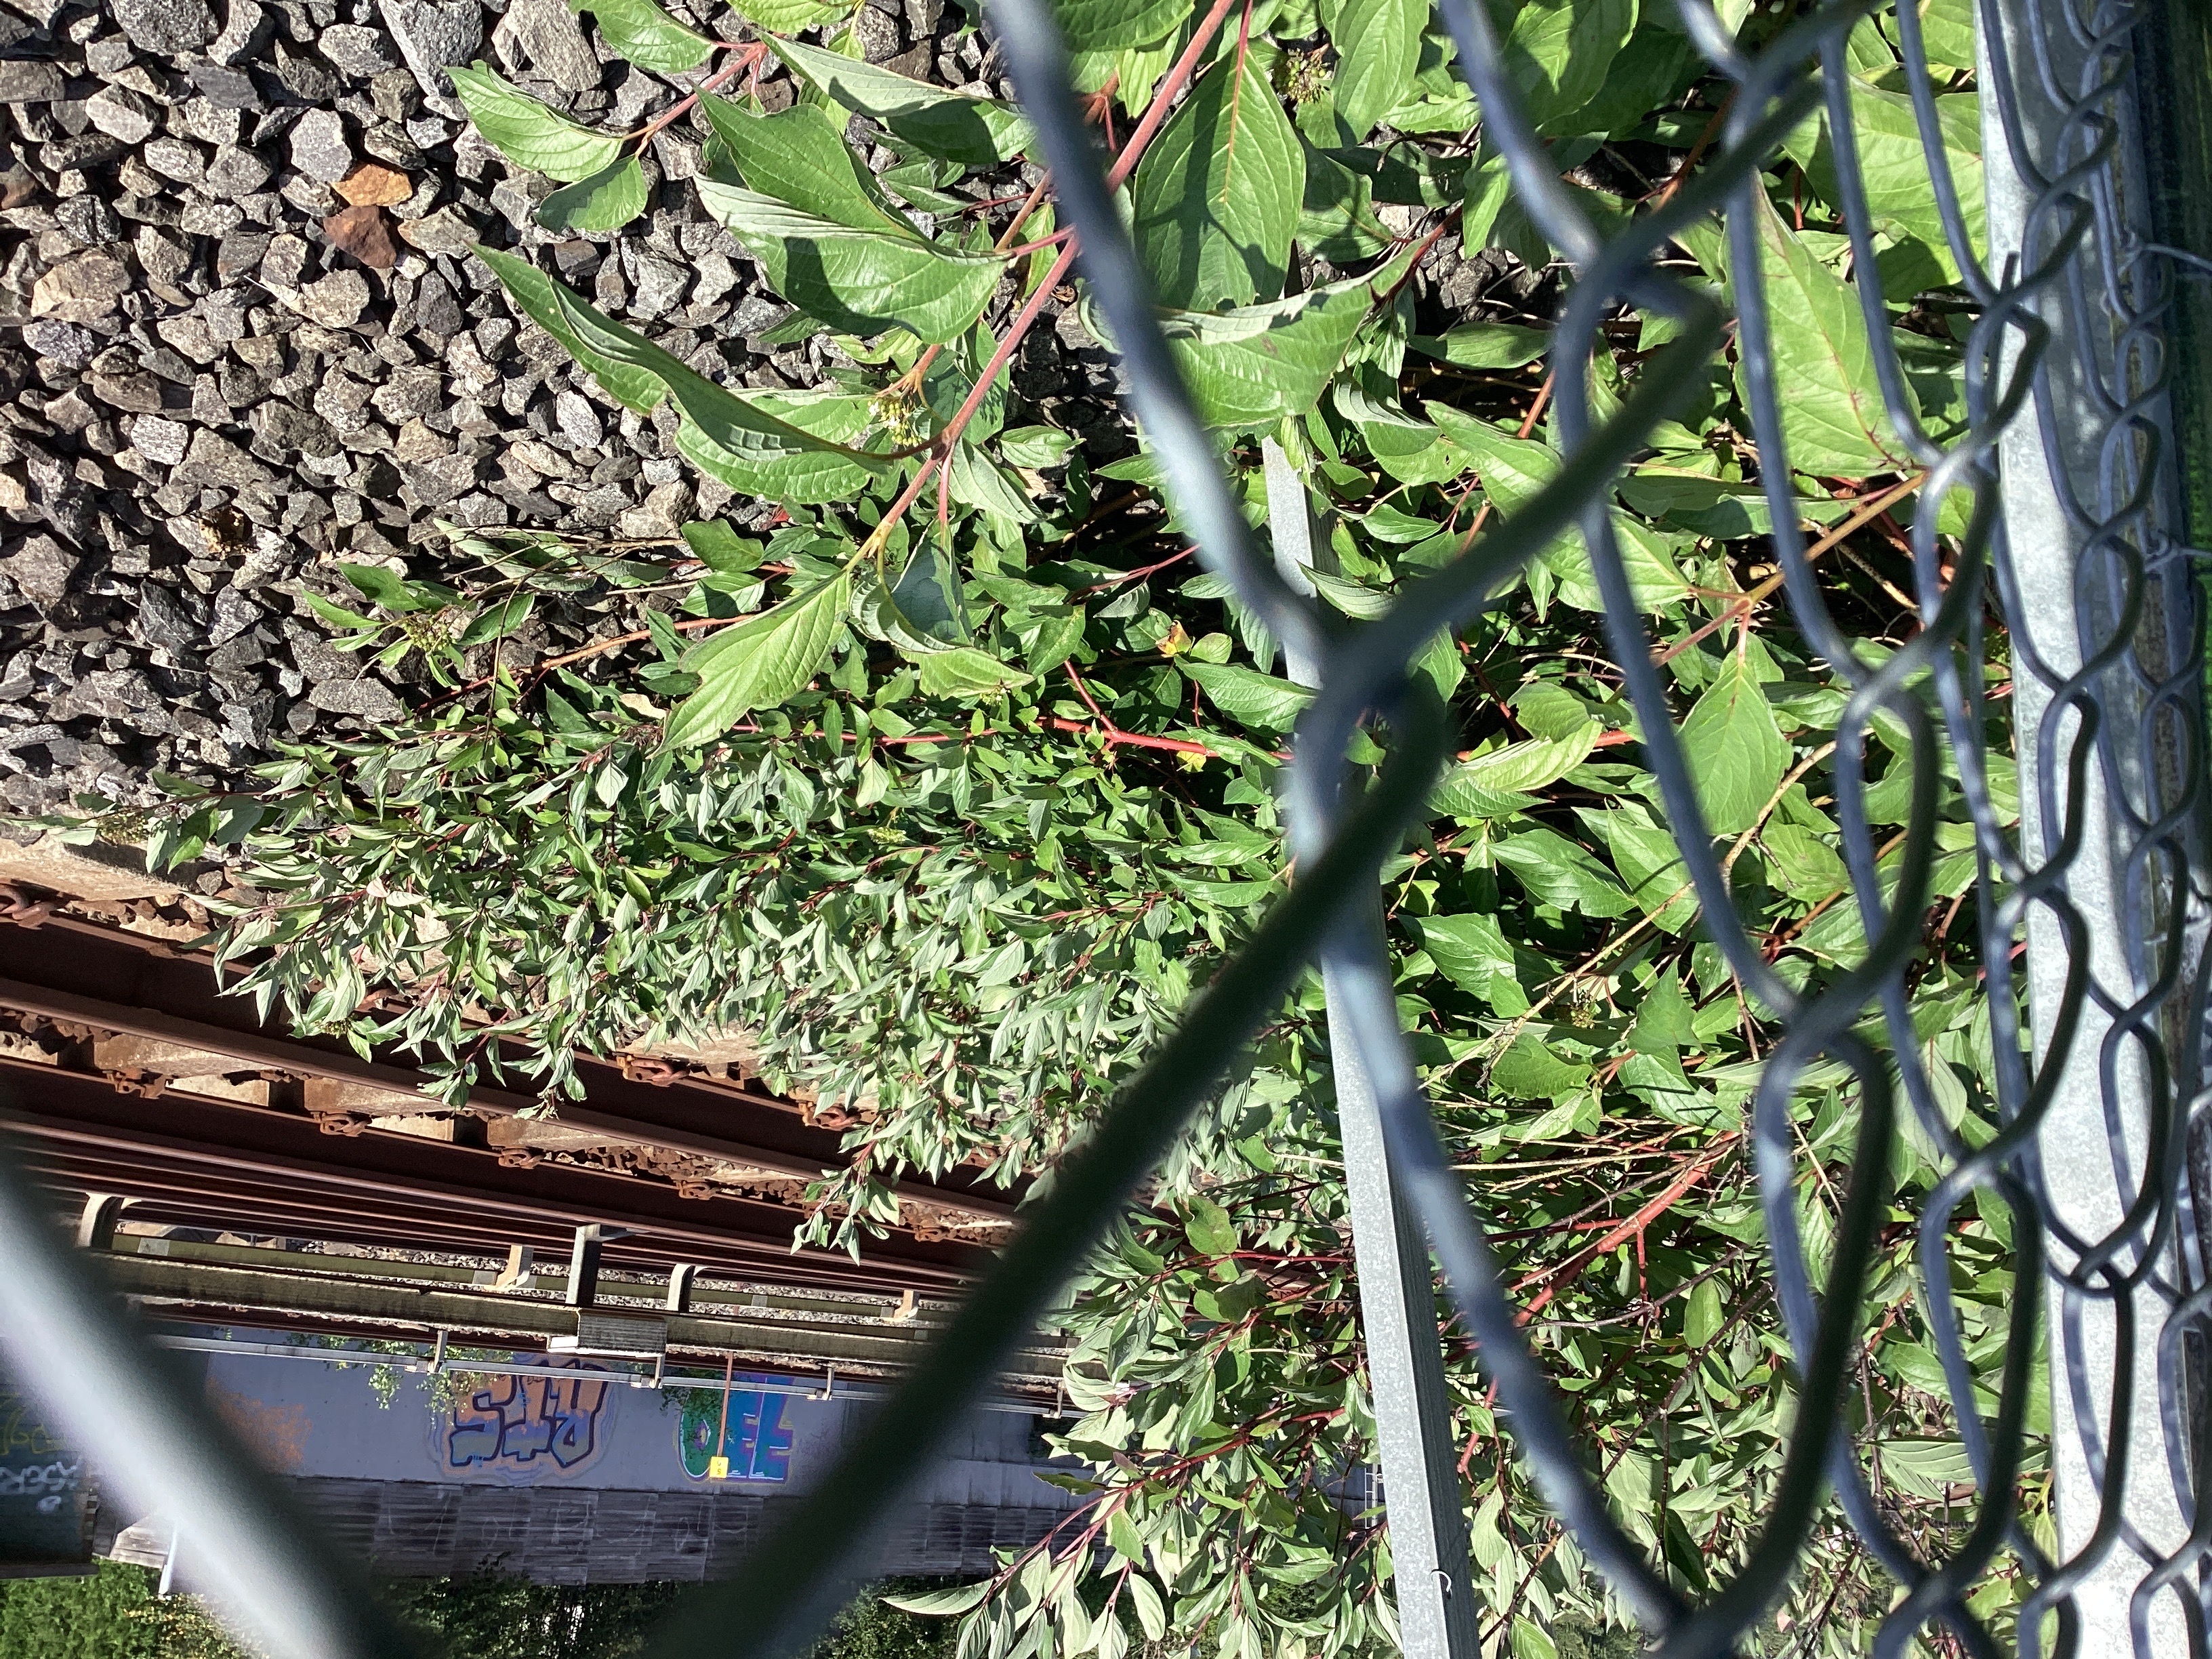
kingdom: Plantae
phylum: Tracheophyta
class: Magnoliopsida
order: Cornales
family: Cornaceae
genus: Cornus
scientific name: Cornus sericea
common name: alaskakornell
